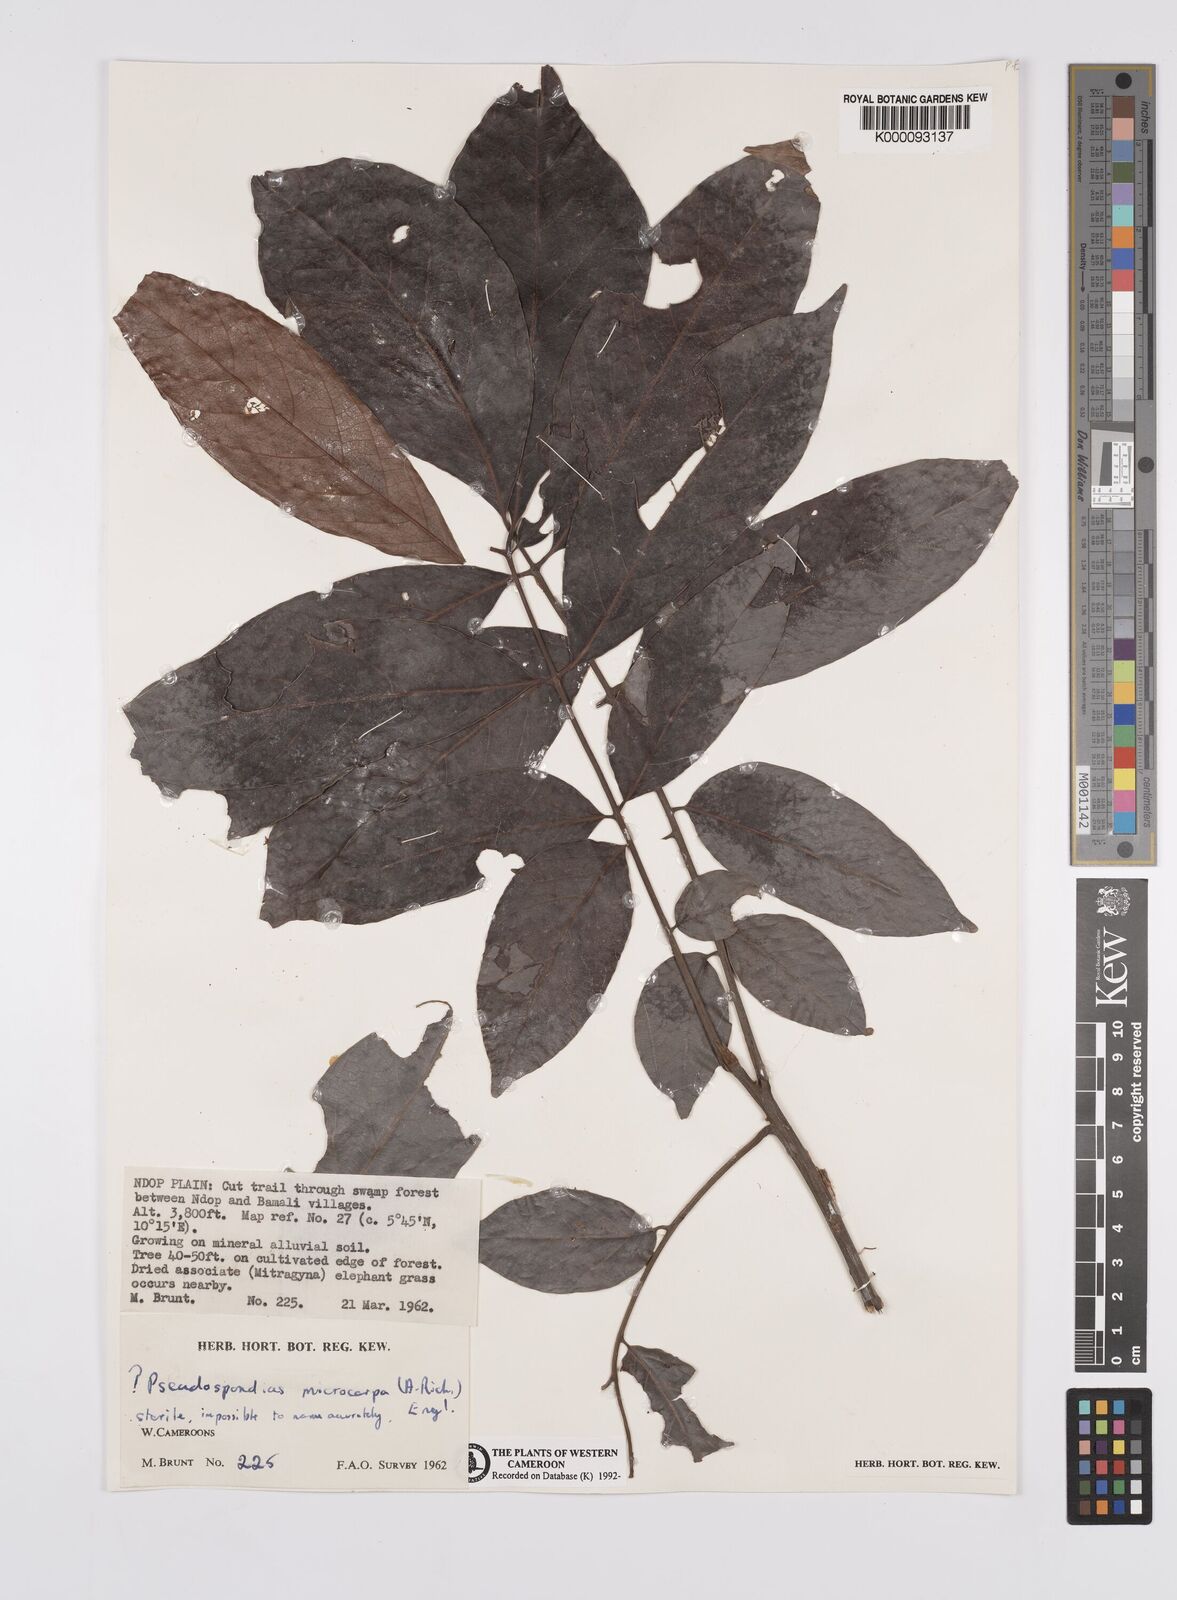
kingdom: Plantae
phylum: Tracheophyta
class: Magnoliopsida
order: Sapindales
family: Anacardiaceae
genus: Pseudospondias
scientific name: Pseudospondias microcarpa
